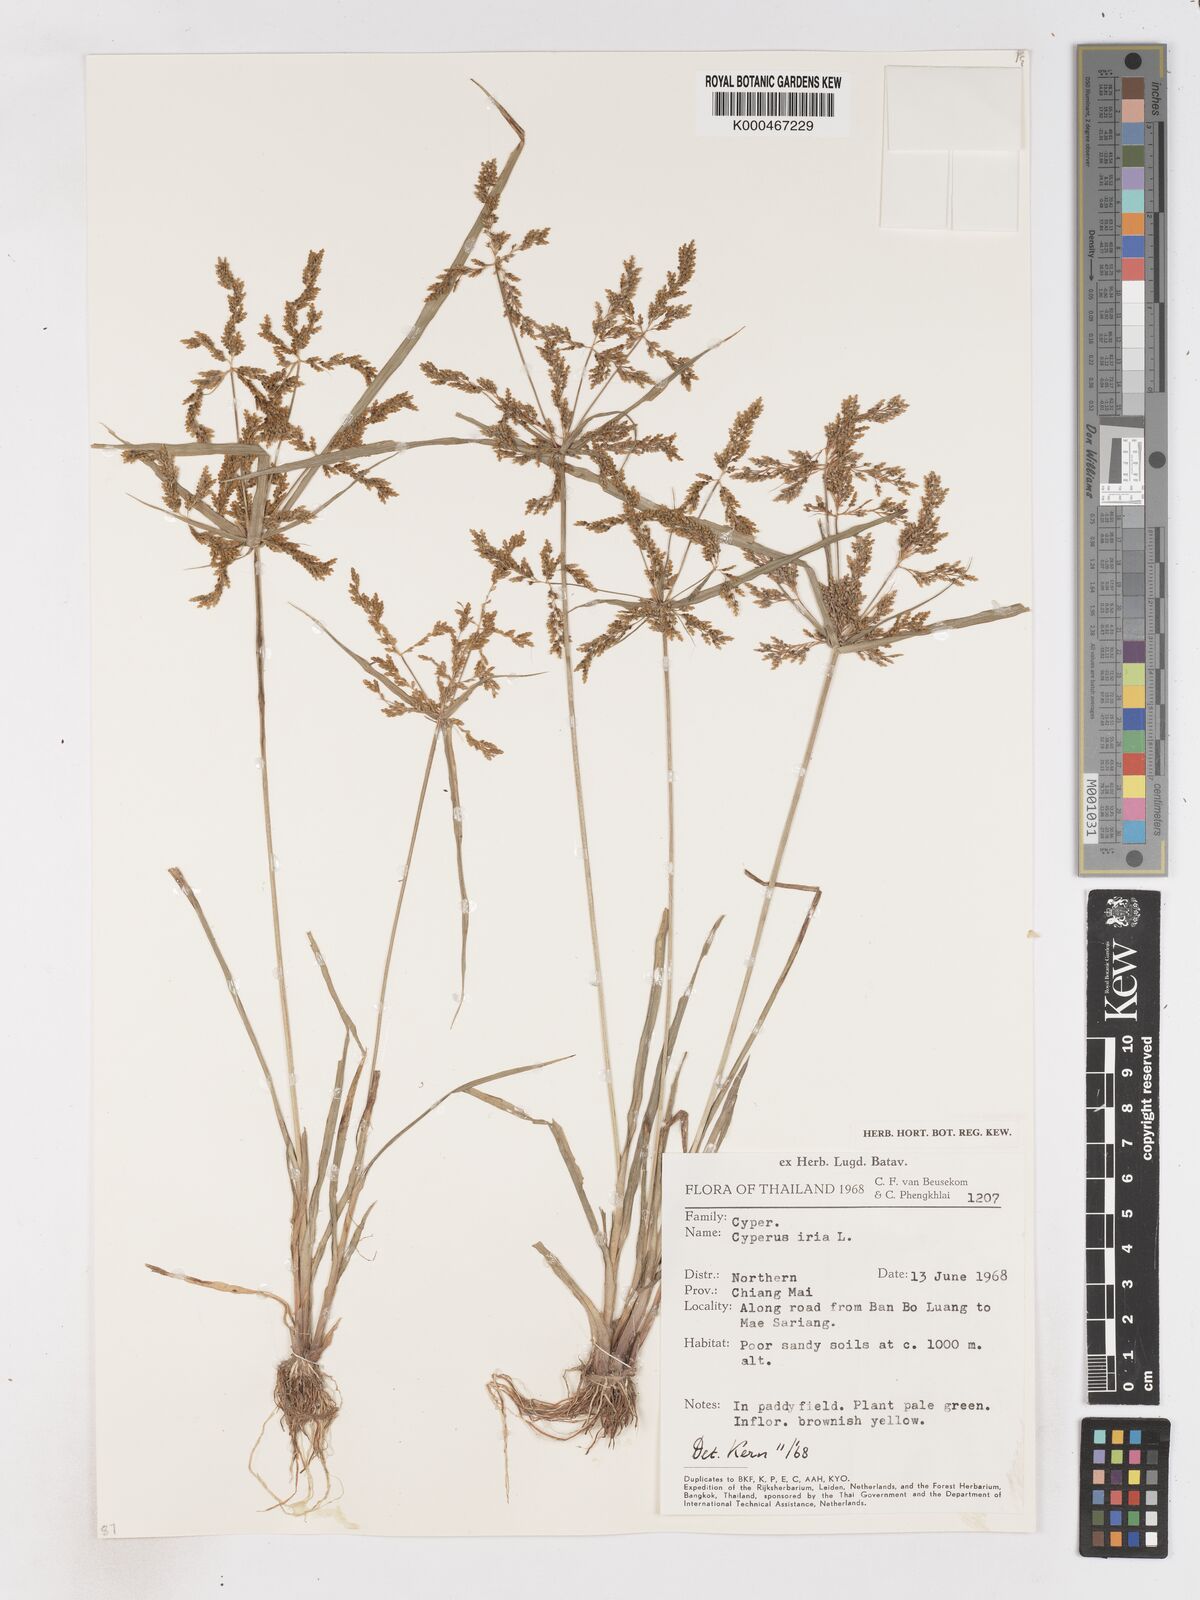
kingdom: Plantae
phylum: Tracheophyta
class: Liliopsida
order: Poales
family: Cyperaceae
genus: Cyperus
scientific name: Cyperus iria
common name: Ricefield flatsedge
